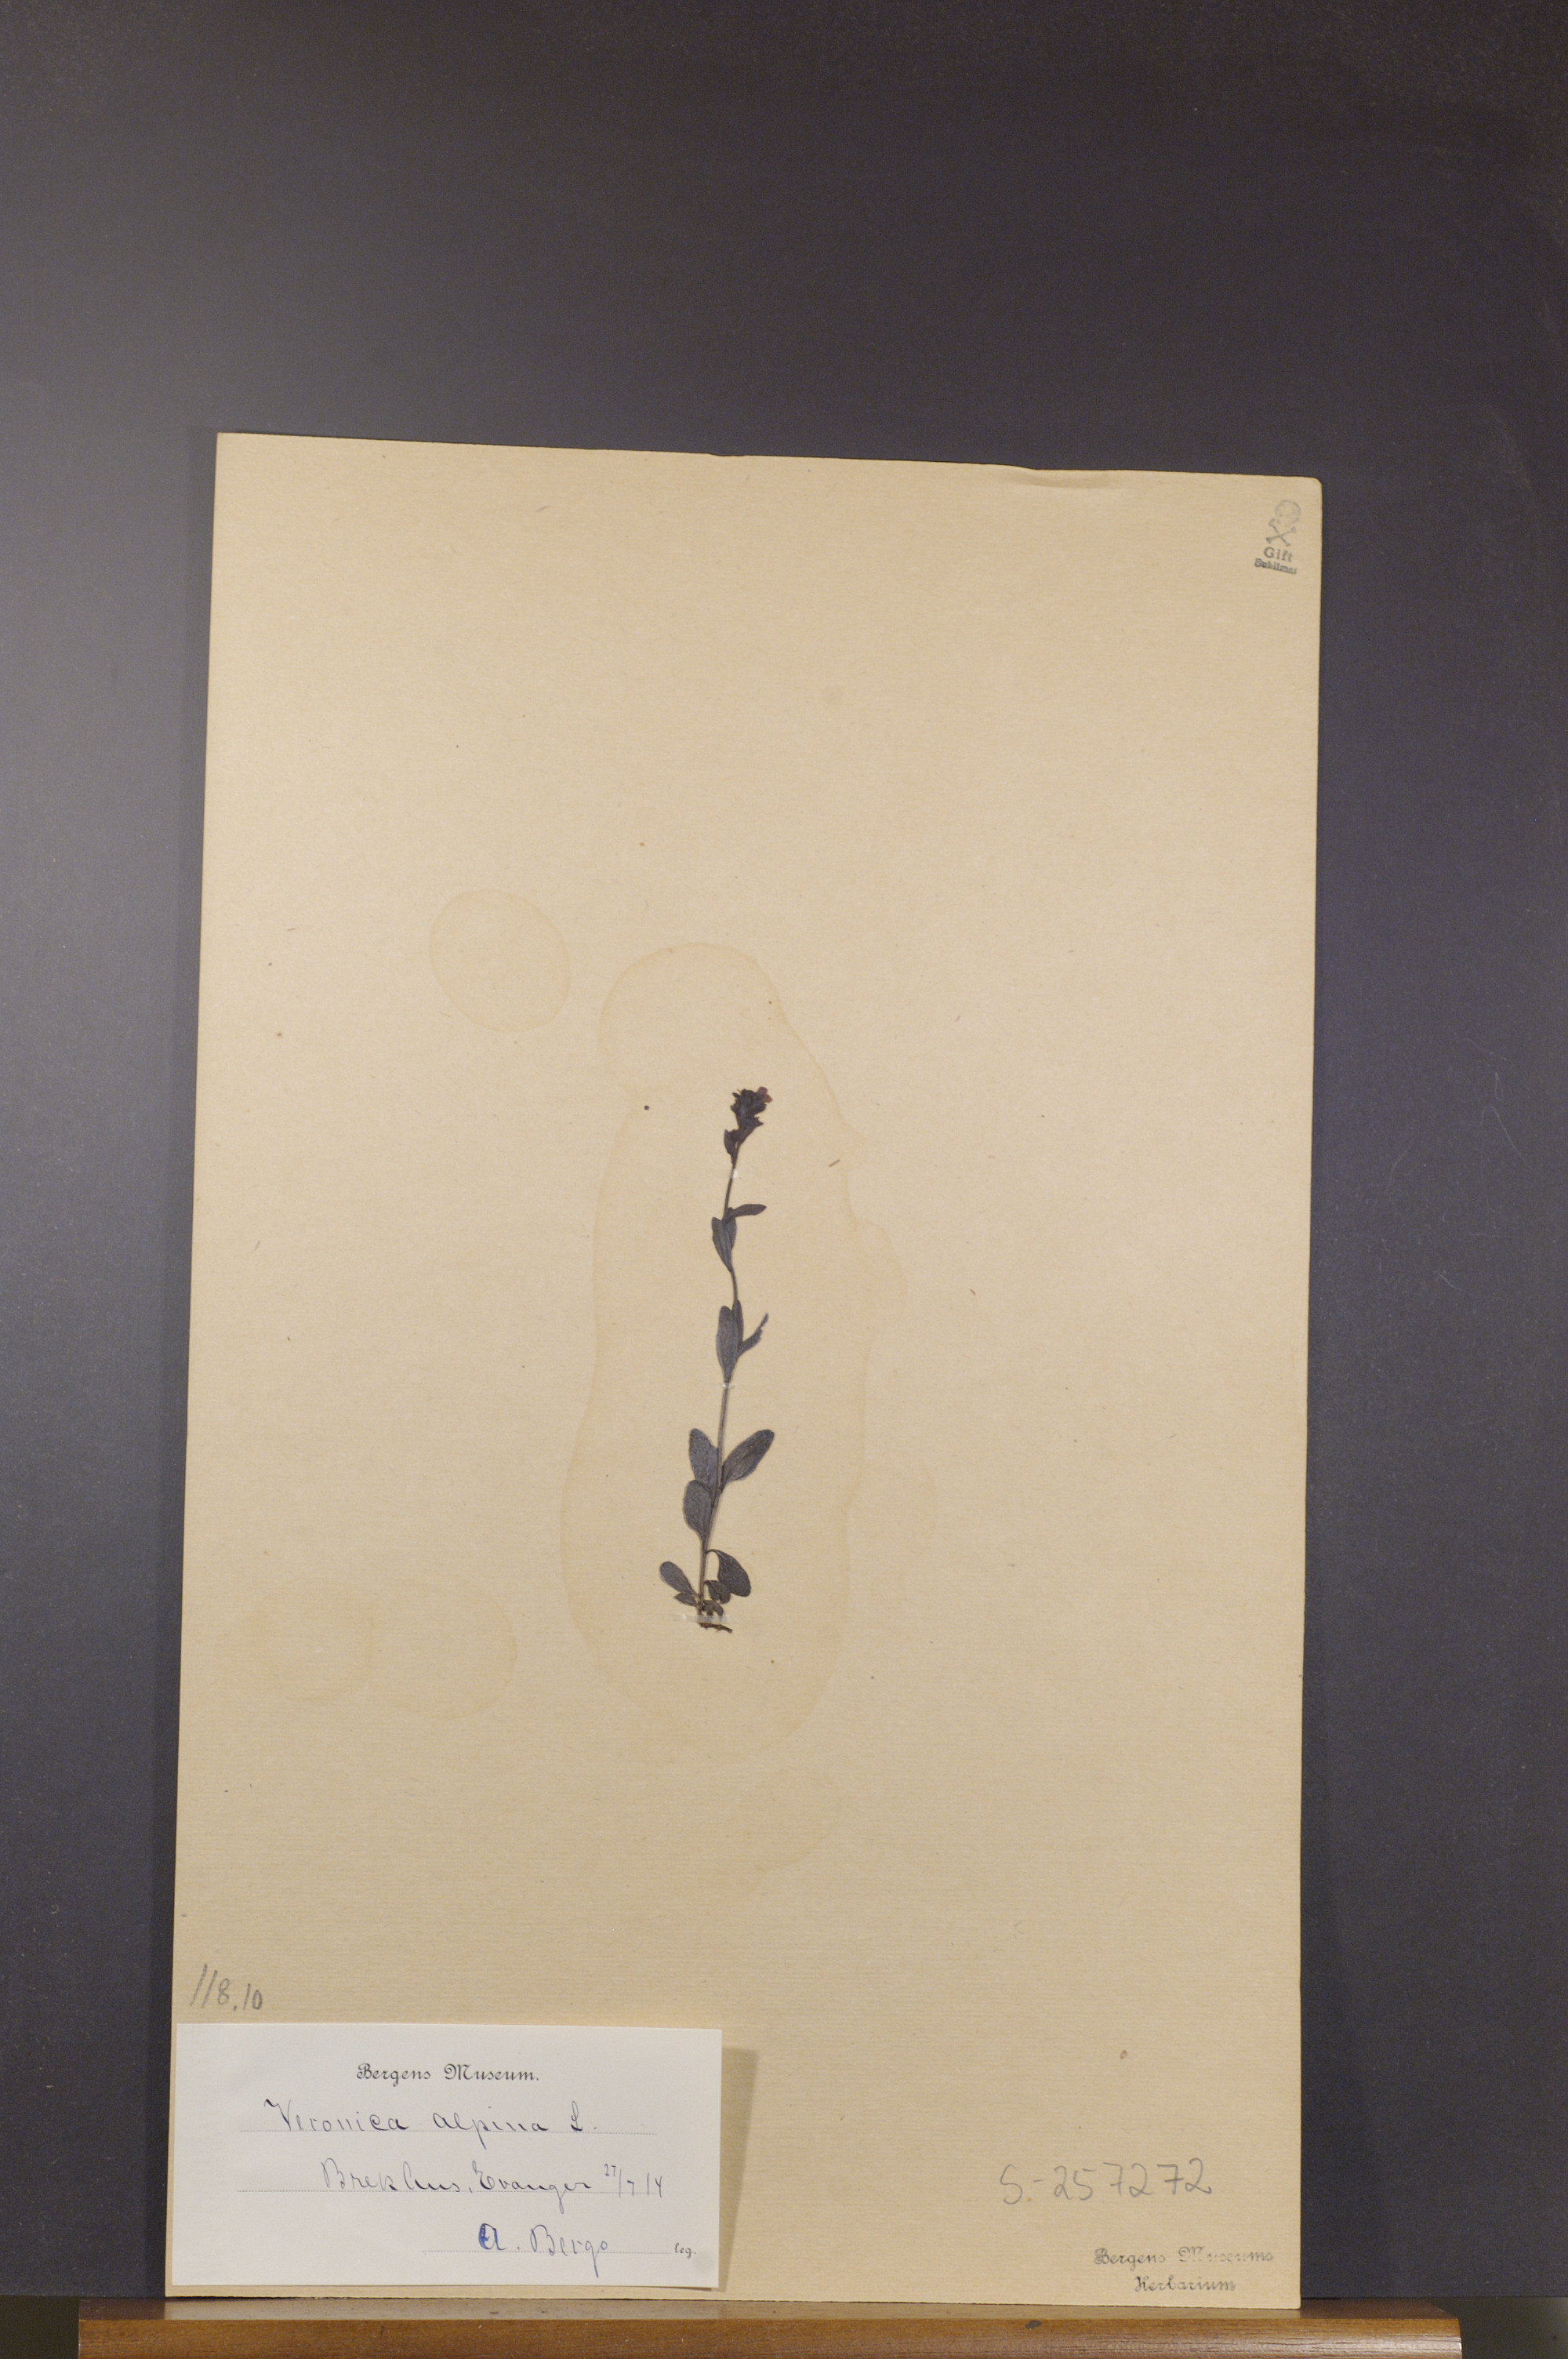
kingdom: Plantae
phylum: Tracheophyta
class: Magnoliopsida
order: Lamiales
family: Plantaginaceae
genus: Veronica
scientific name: Veronica alpina
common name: Alpine speedwell
